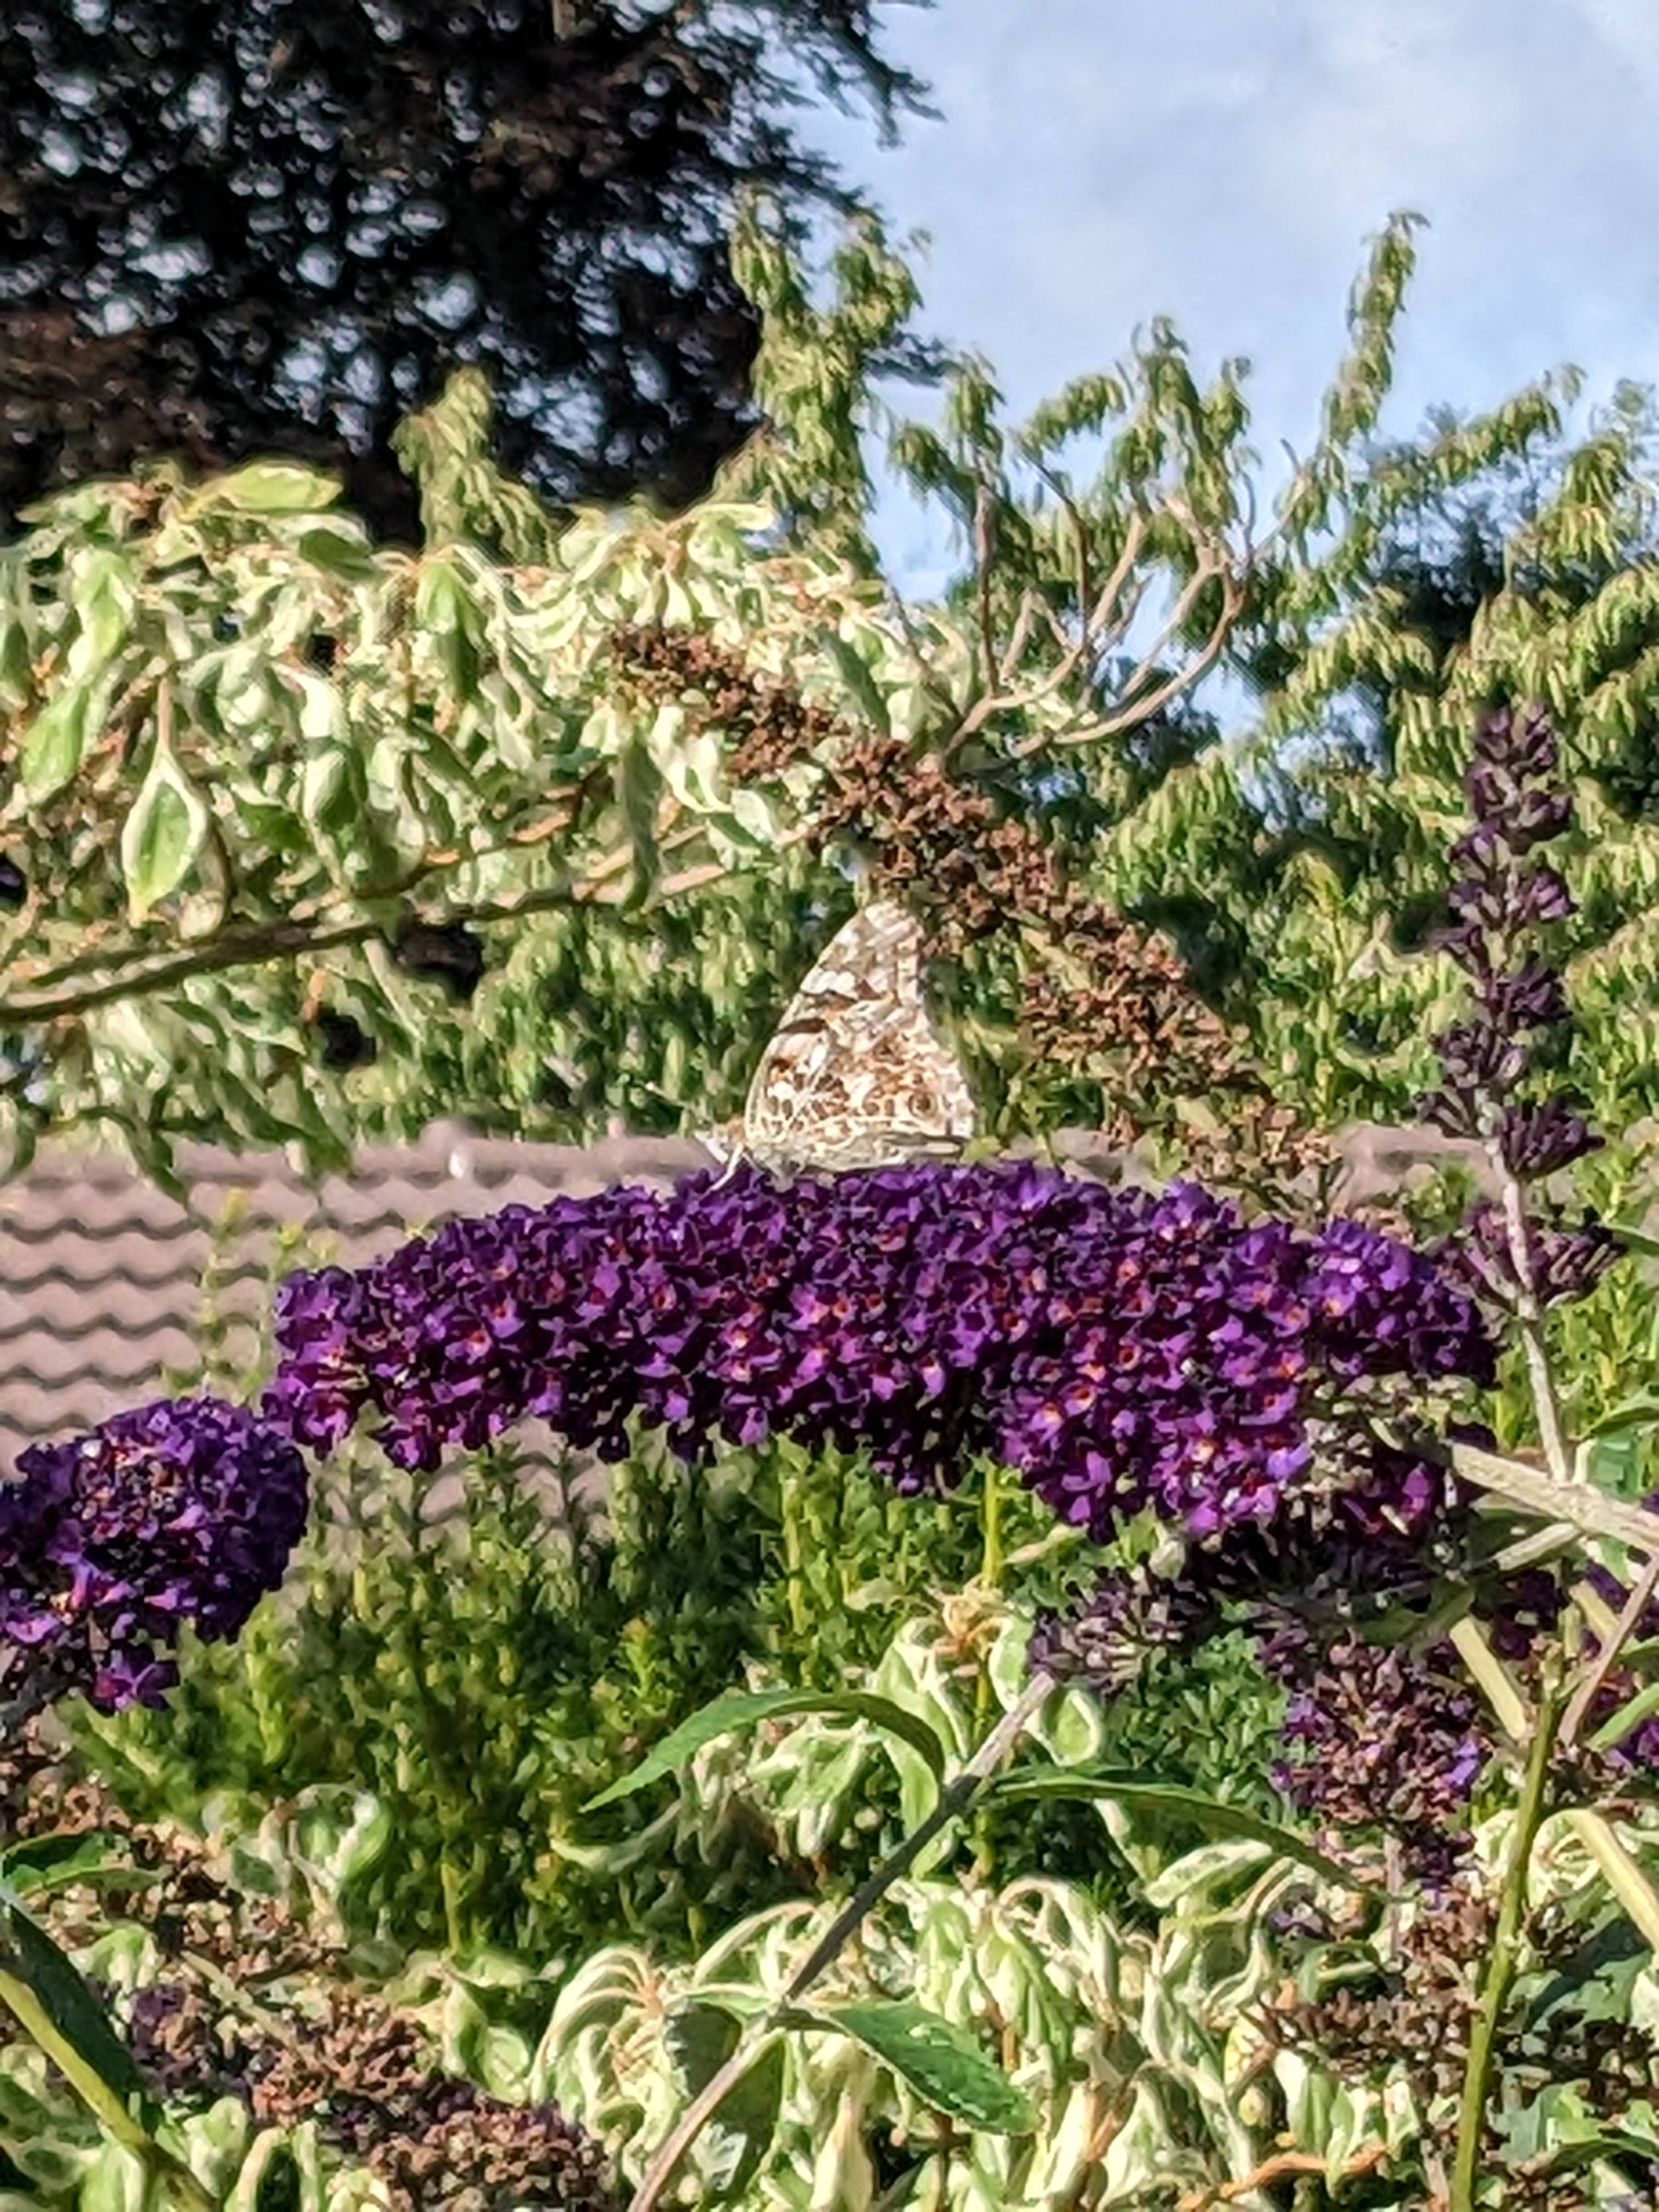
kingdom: Animalia
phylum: Arthropoda
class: Insecta
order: Lepidoptera
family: Nymphalidae
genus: Vanessa
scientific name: Vanessa cardui
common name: Tidselsommerfugl
